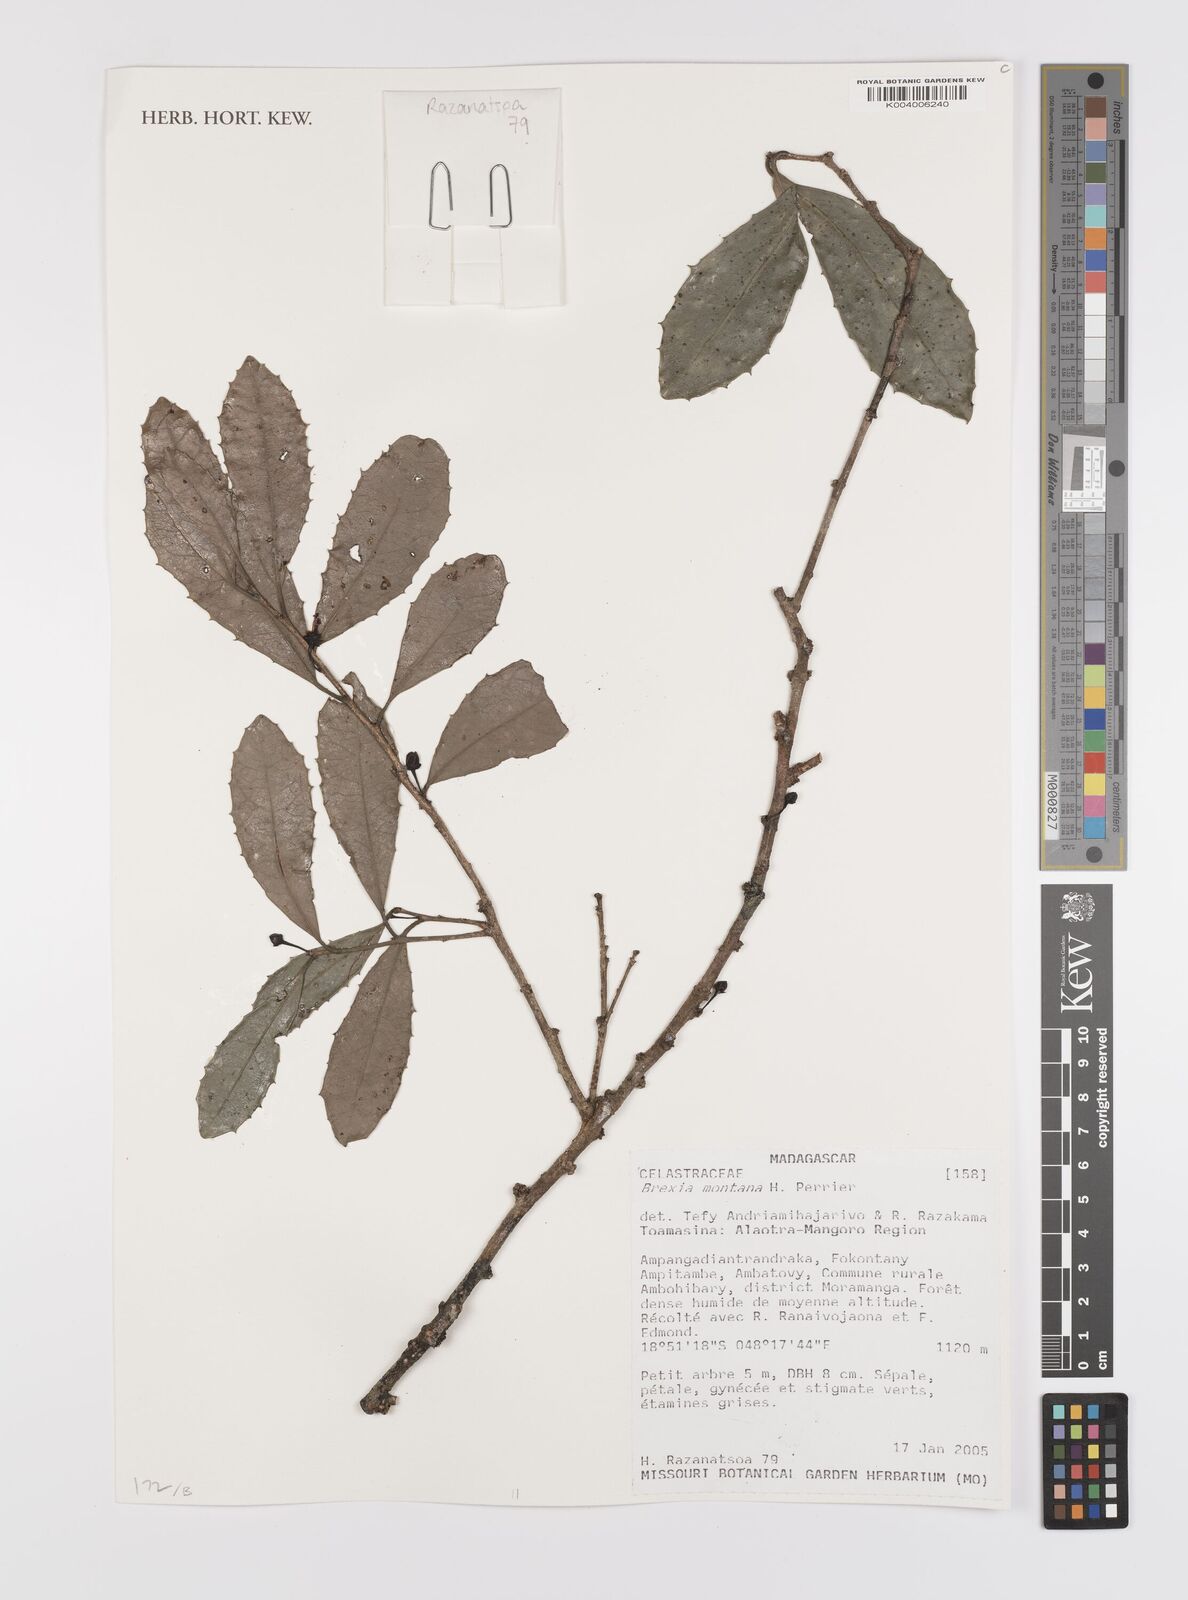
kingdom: Plantae
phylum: Tracheophyta
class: Magnoliopsida
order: Celastrales
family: Celastraceae
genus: Brexia
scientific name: Brexia montana
